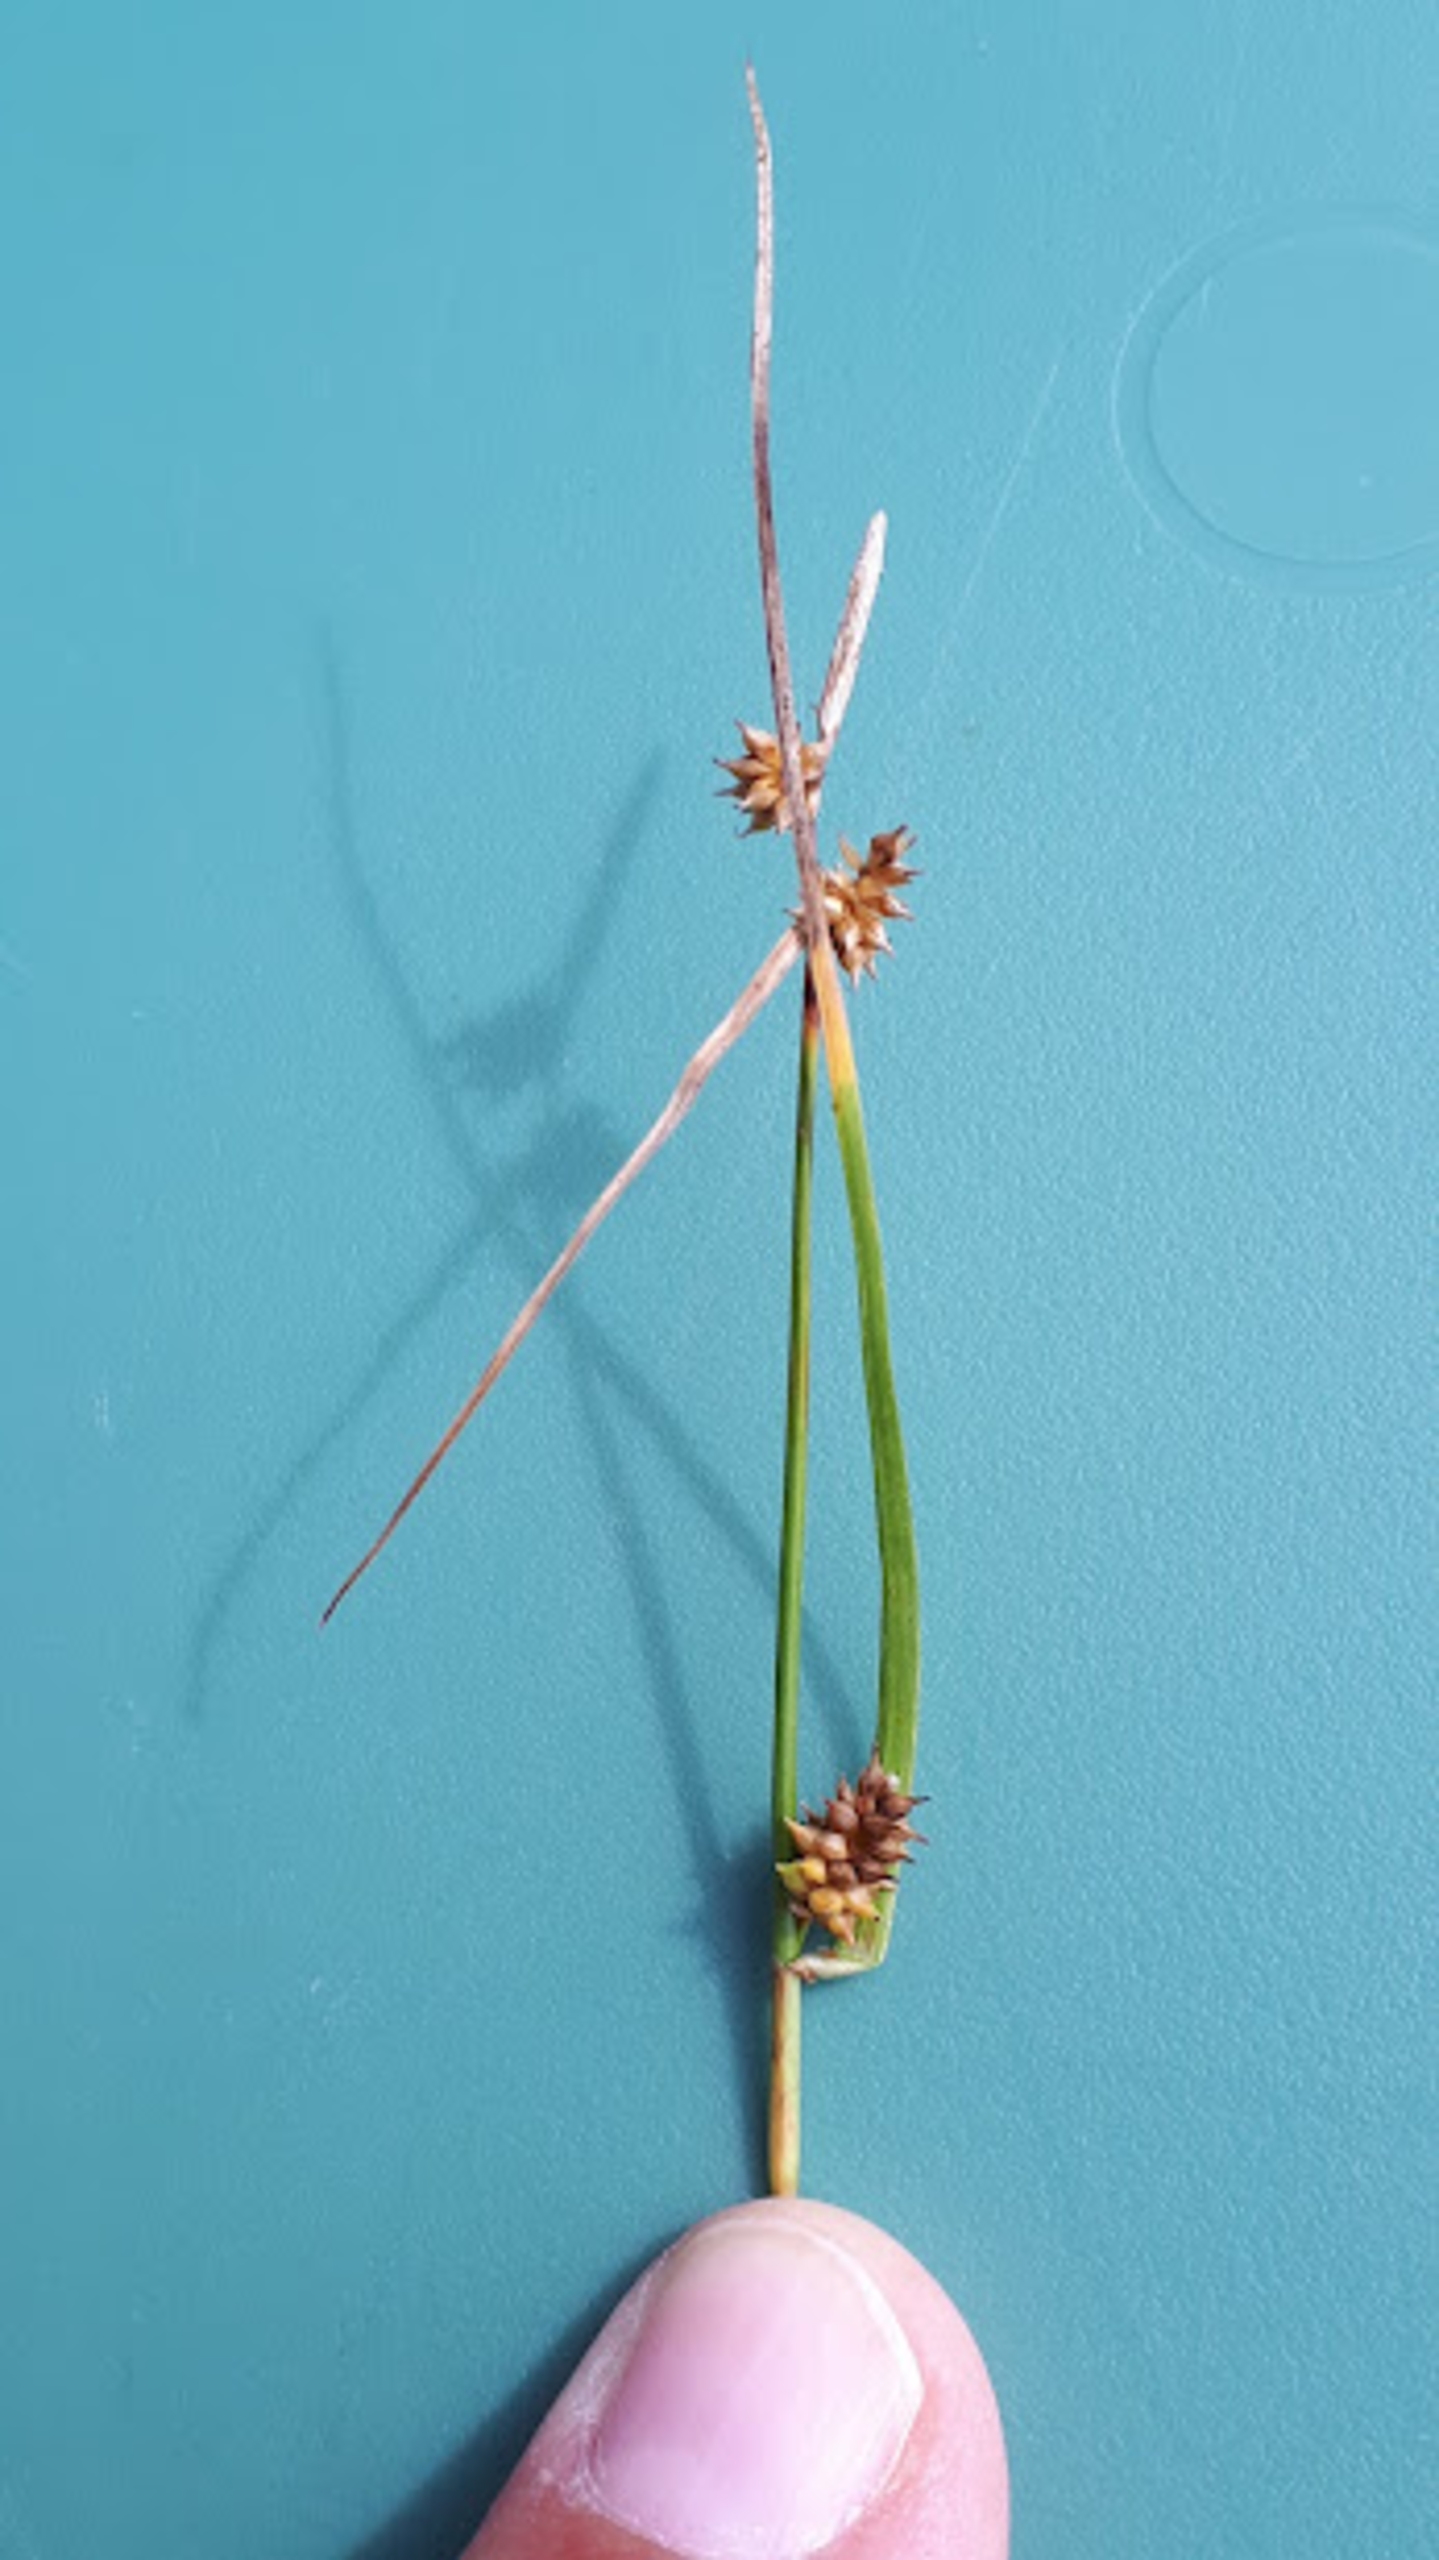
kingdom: Plantae
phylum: Tracheophyta
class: Liliopsida
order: Poales
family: Cyperaceae
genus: Carex
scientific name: Carex demissa
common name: Grøn star
